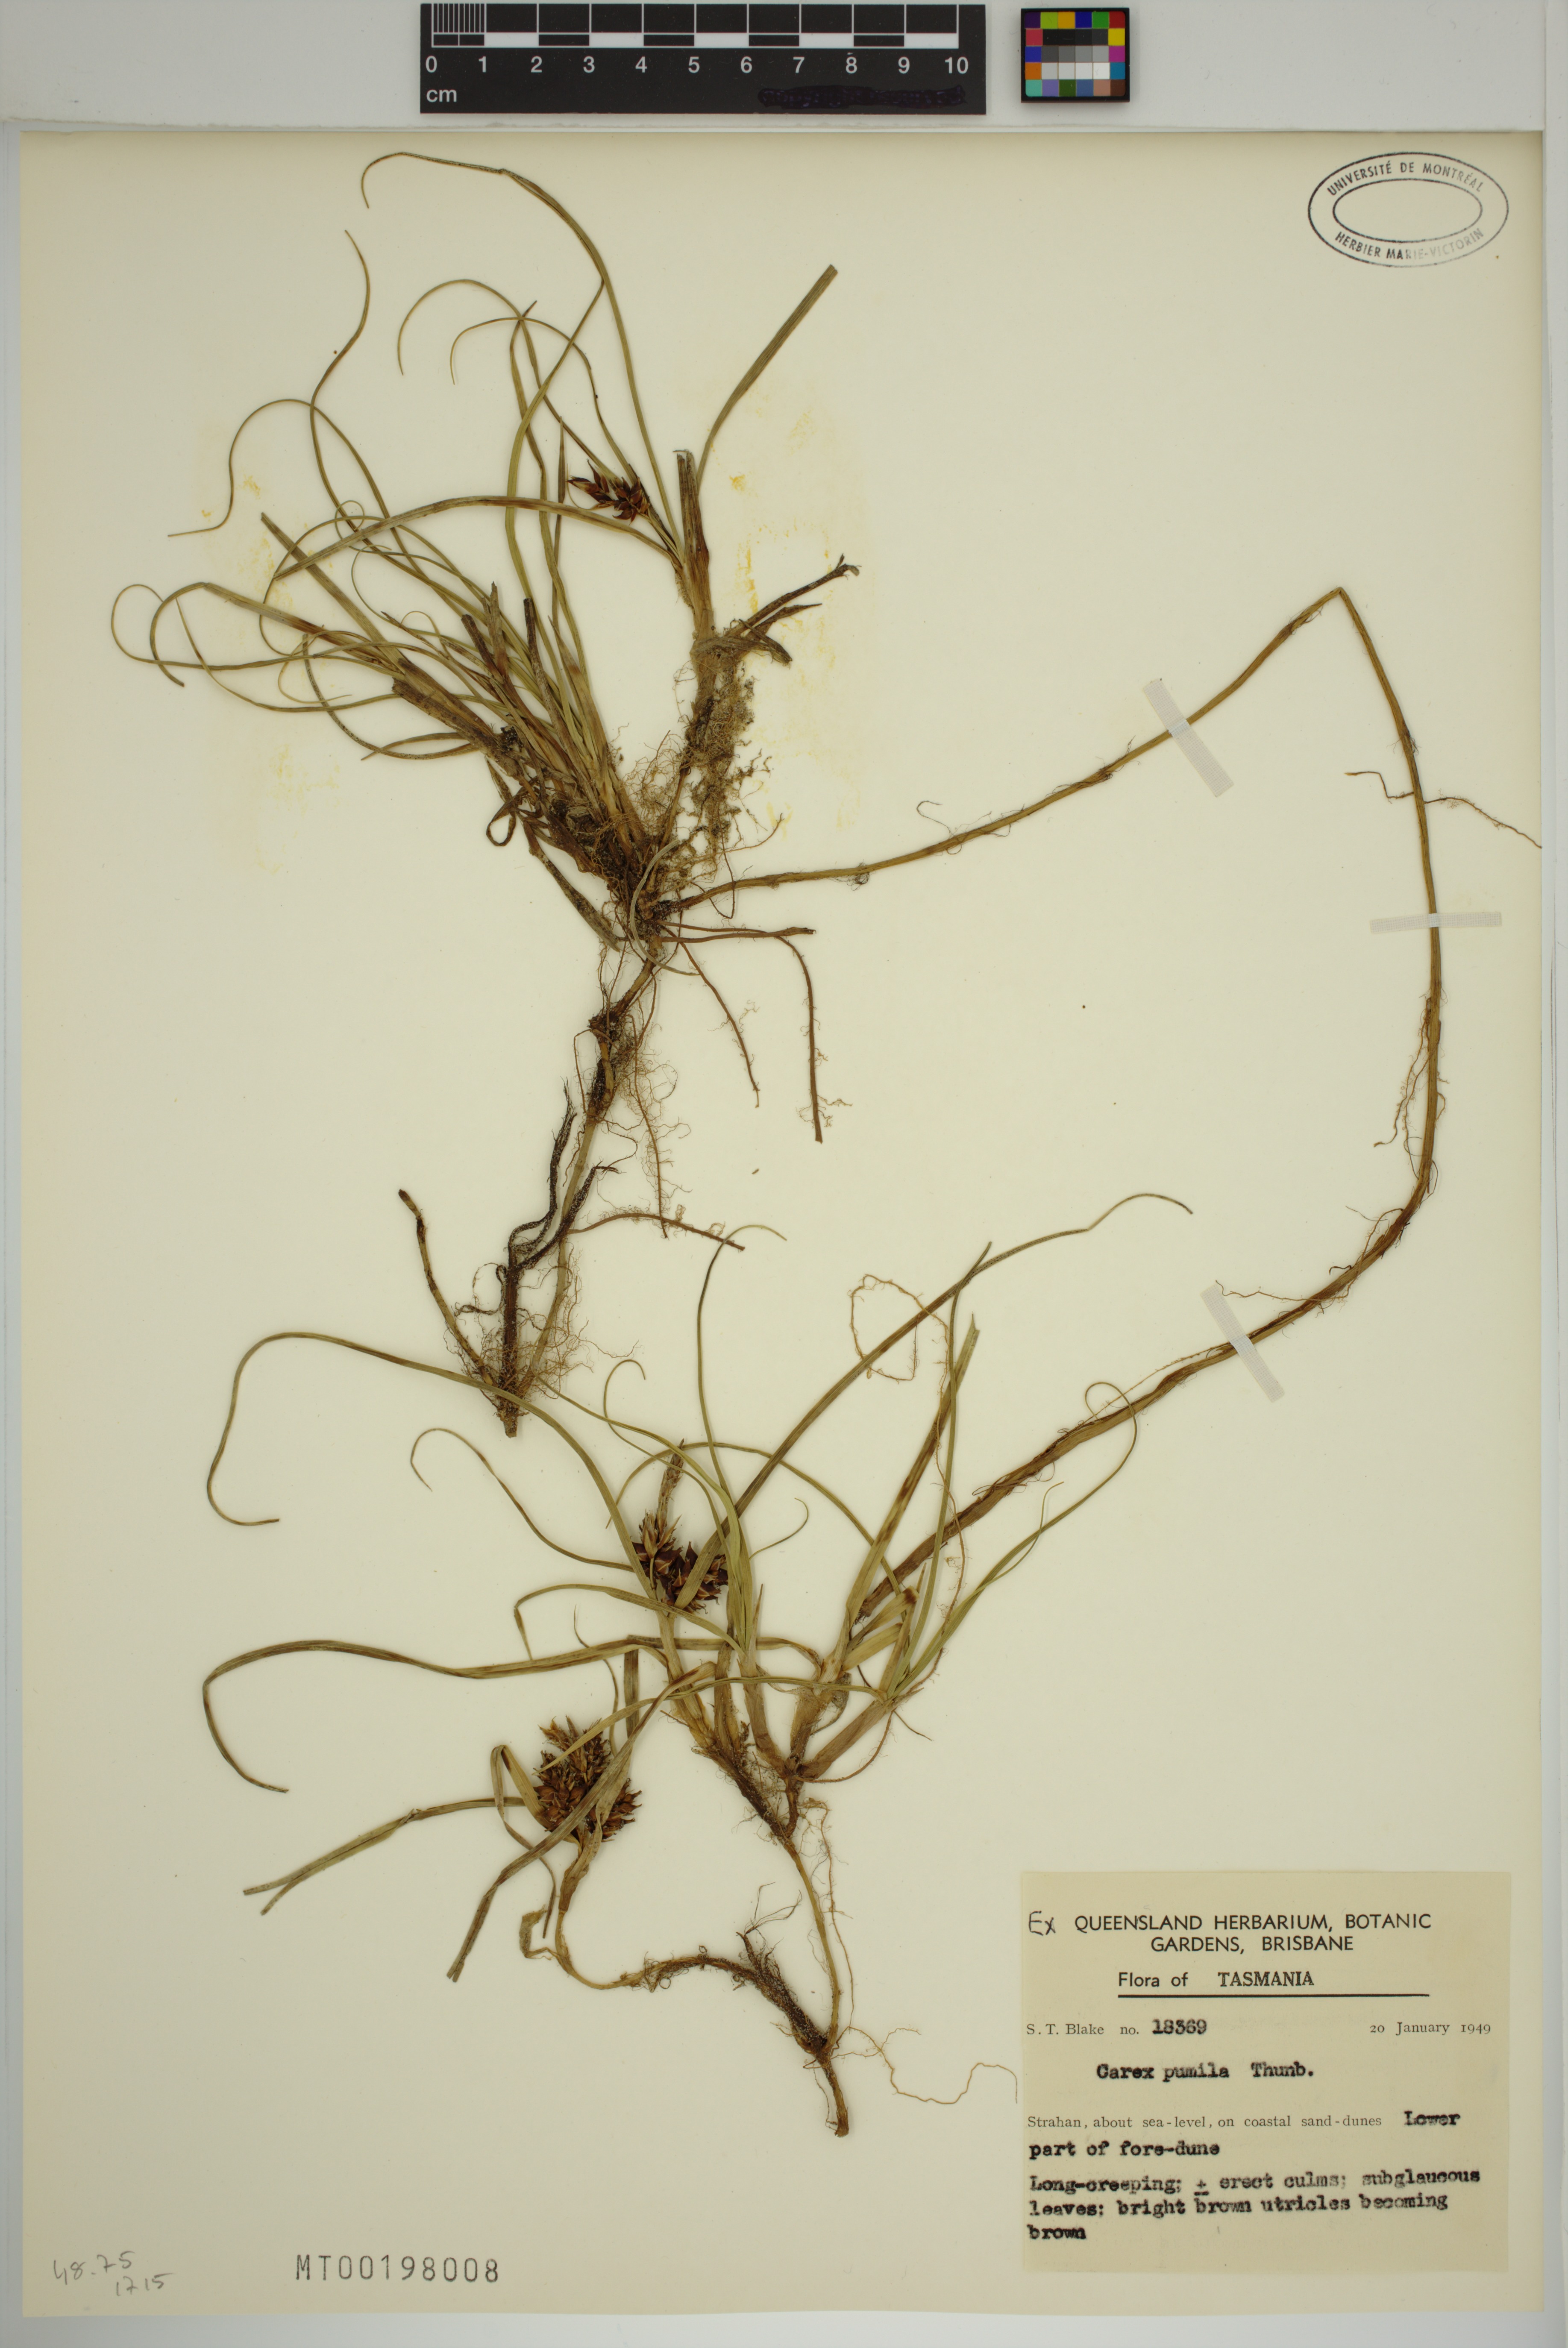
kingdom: Plantae
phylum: Tracheophyta
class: Liliopsida
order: Poales
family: Cyperaceae
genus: Carex
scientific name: Carex pumila
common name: Dwarf sedge
